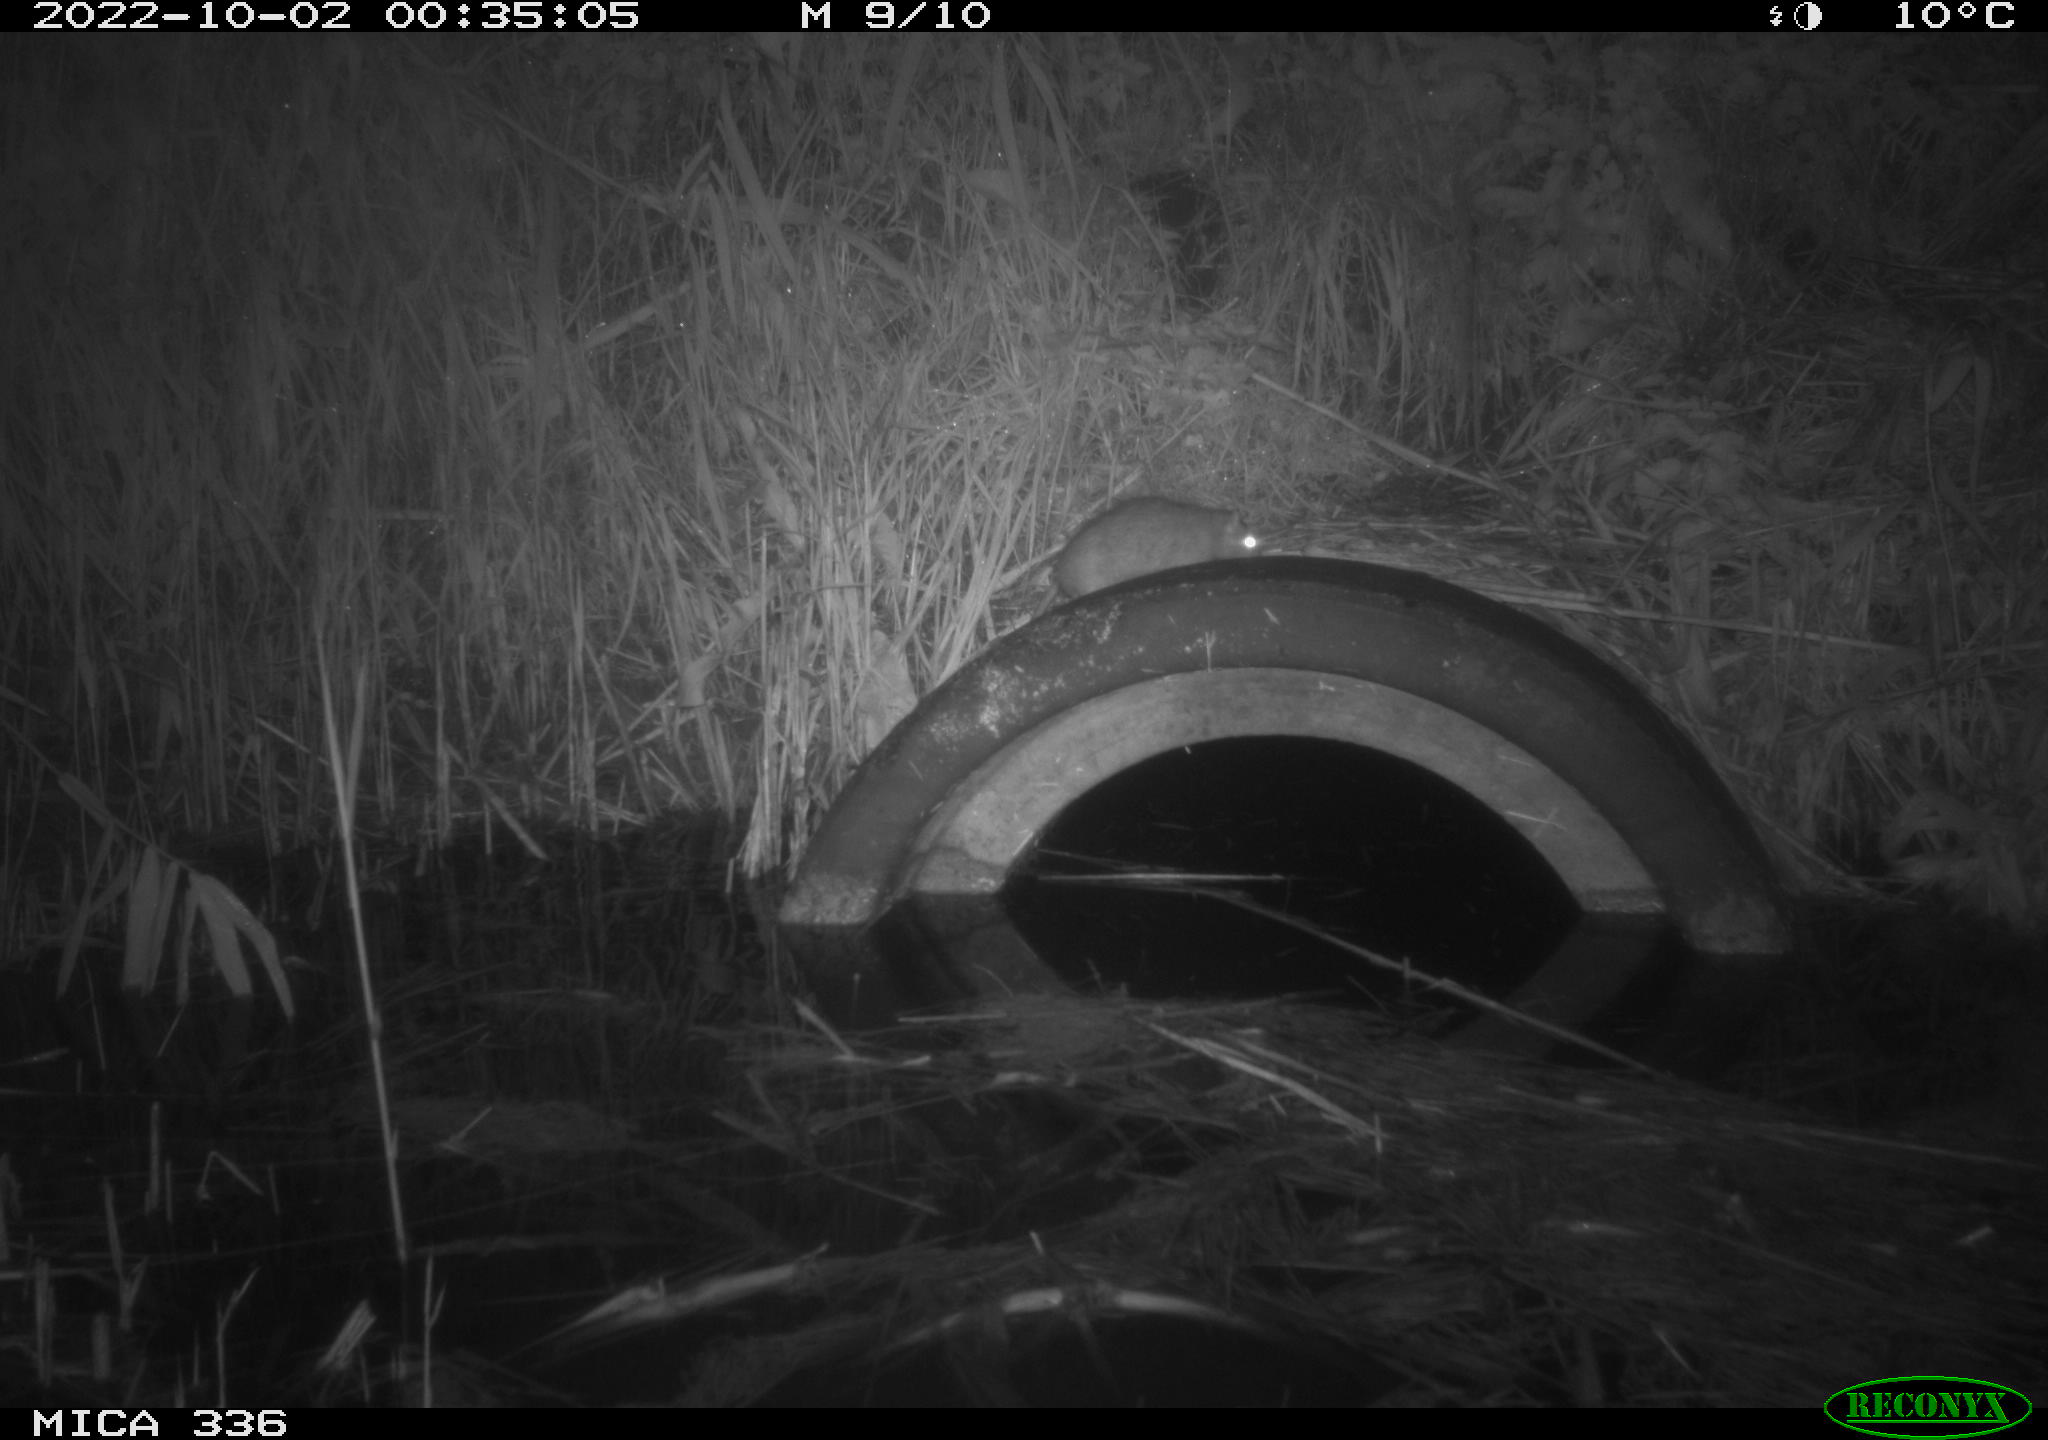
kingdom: Animalia
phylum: Chordata
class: Mammalia
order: Rodentia
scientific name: Rodentia
